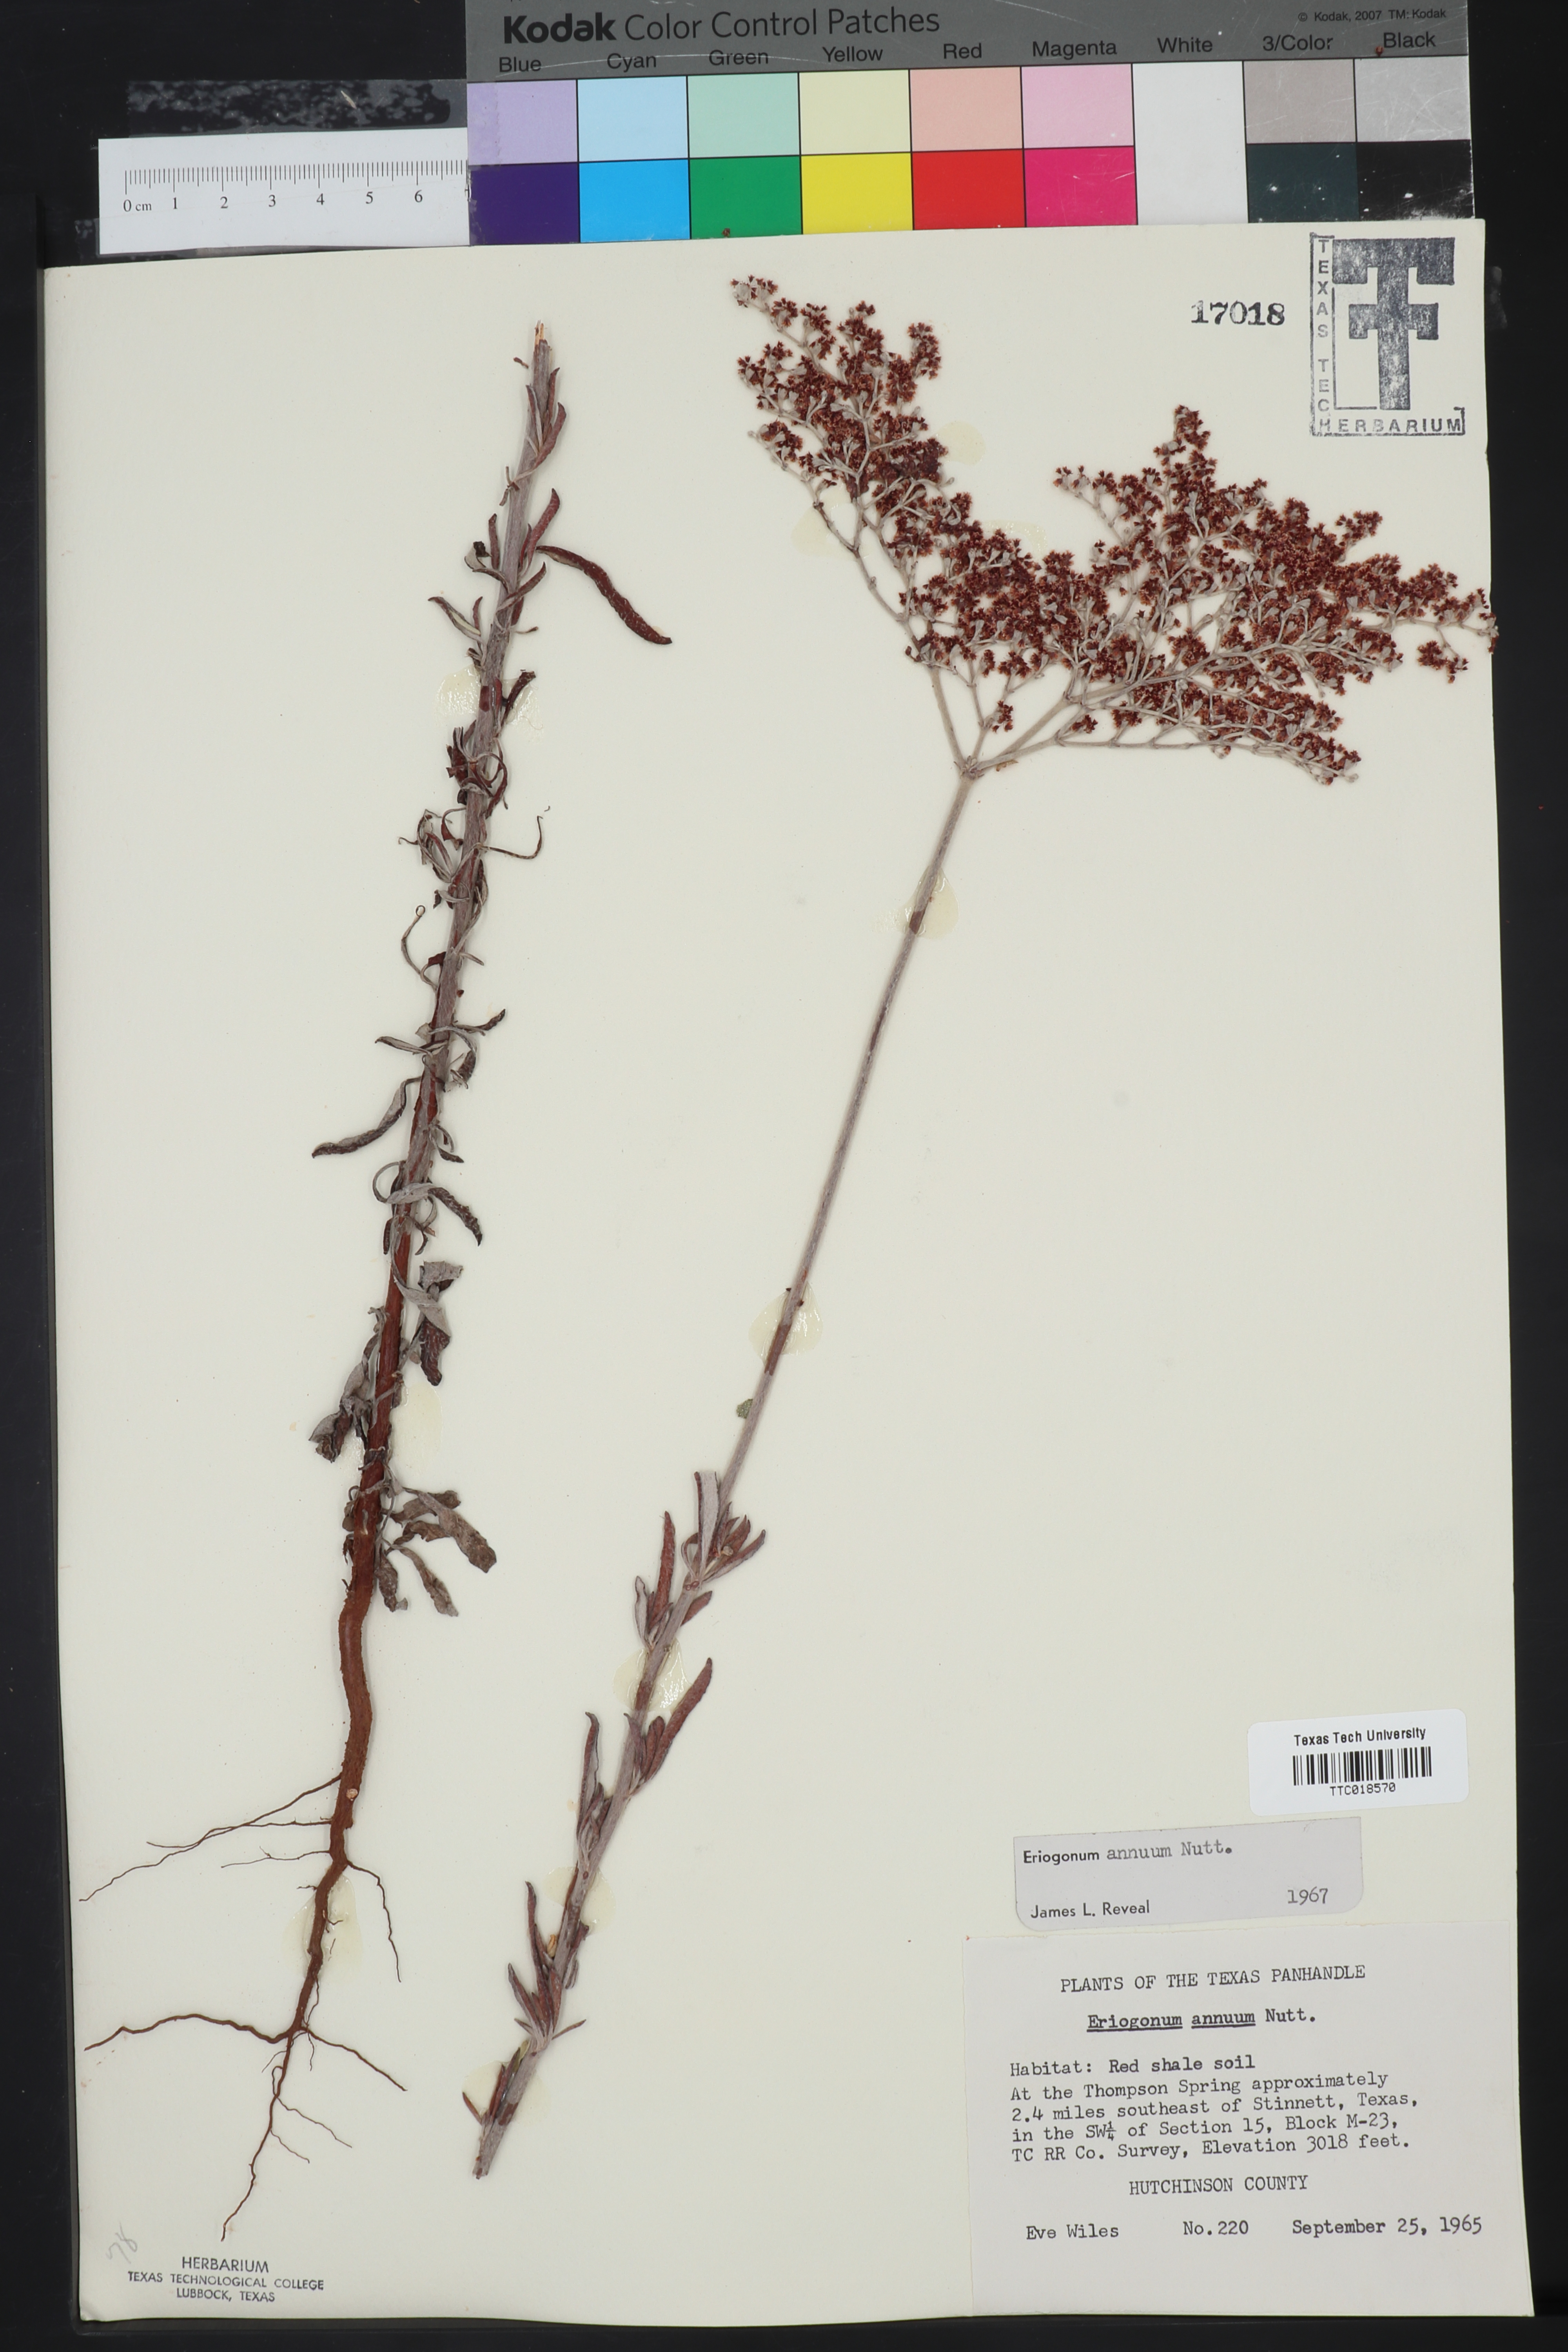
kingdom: Plantae
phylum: Tracheophyta
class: Magnoliopsida
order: Caryophyllales
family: Polygonaceae
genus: Eriogonum
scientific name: Eriogonum annuum
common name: Annual wild buckwheat
